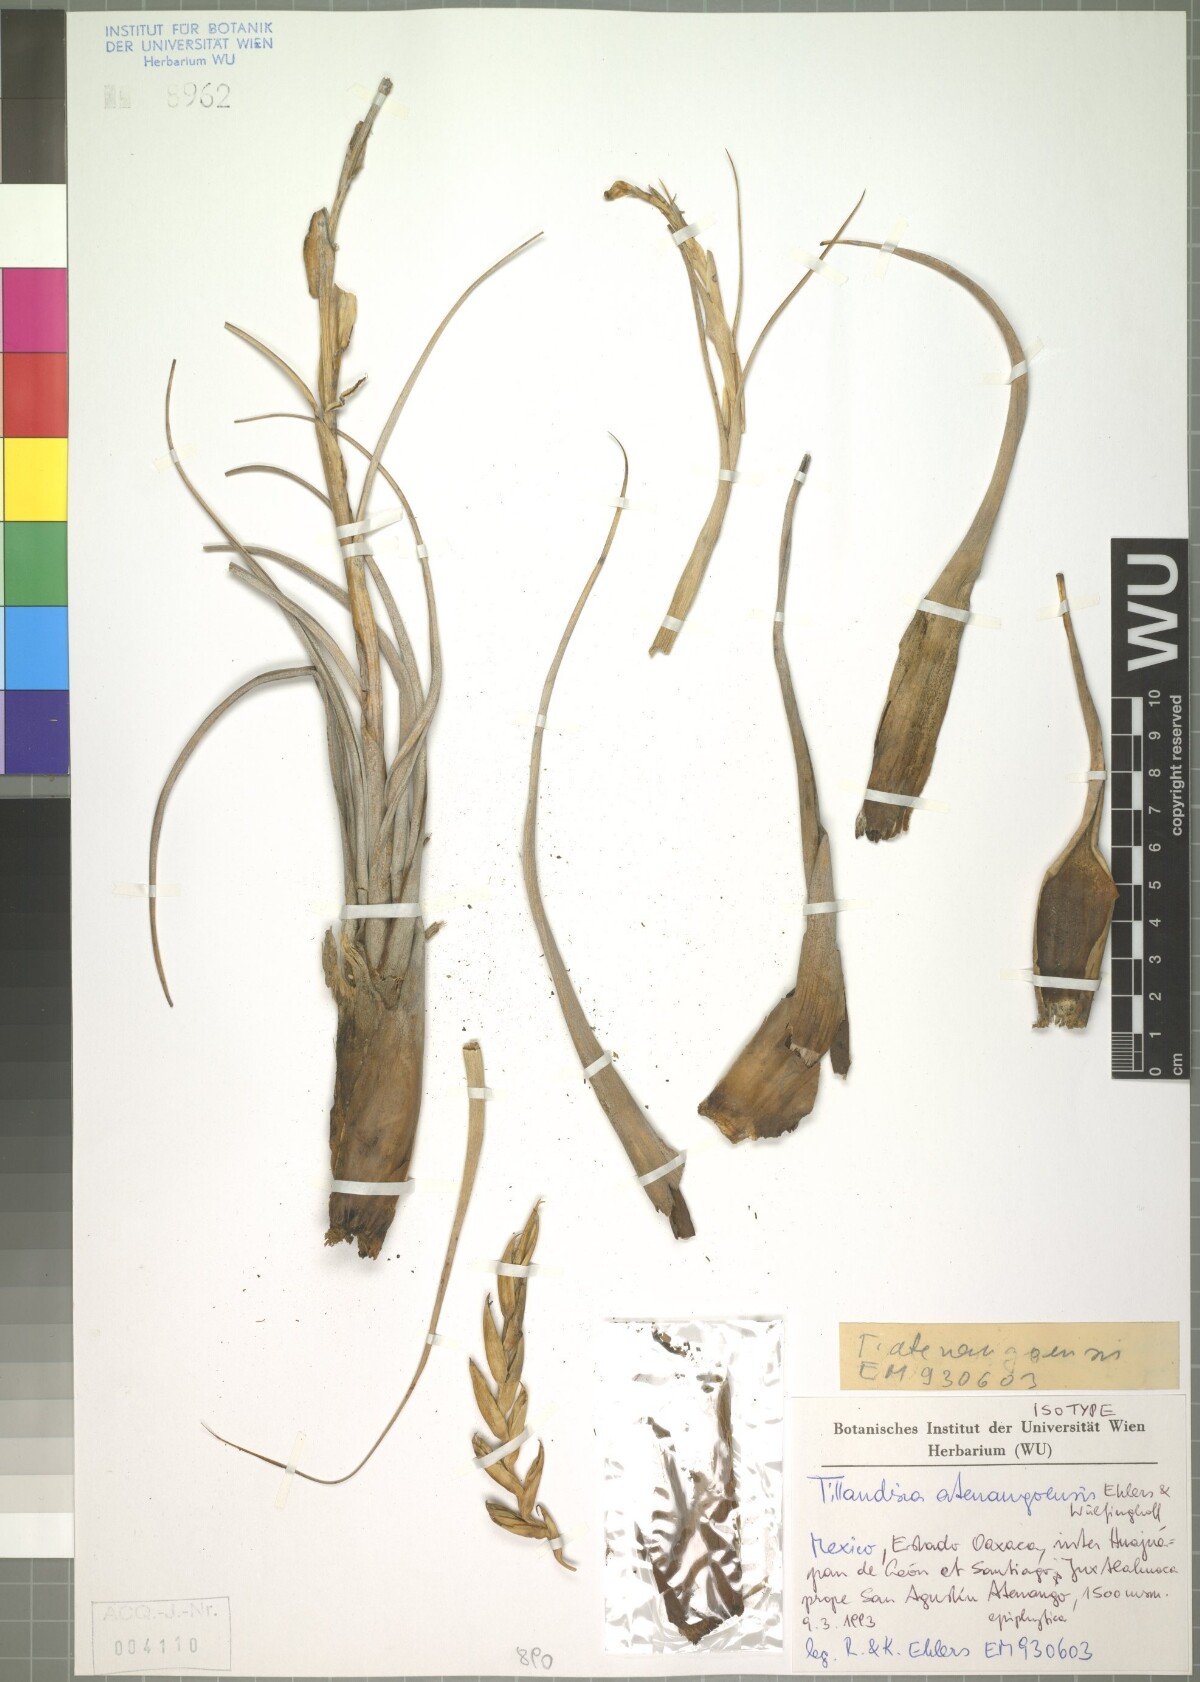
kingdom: Plantae
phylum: Tracheophyta
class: Liliopsida
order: Poales
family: Bromeliaceae
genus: Tillandsia
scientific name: Tillandsia atenangoensis
